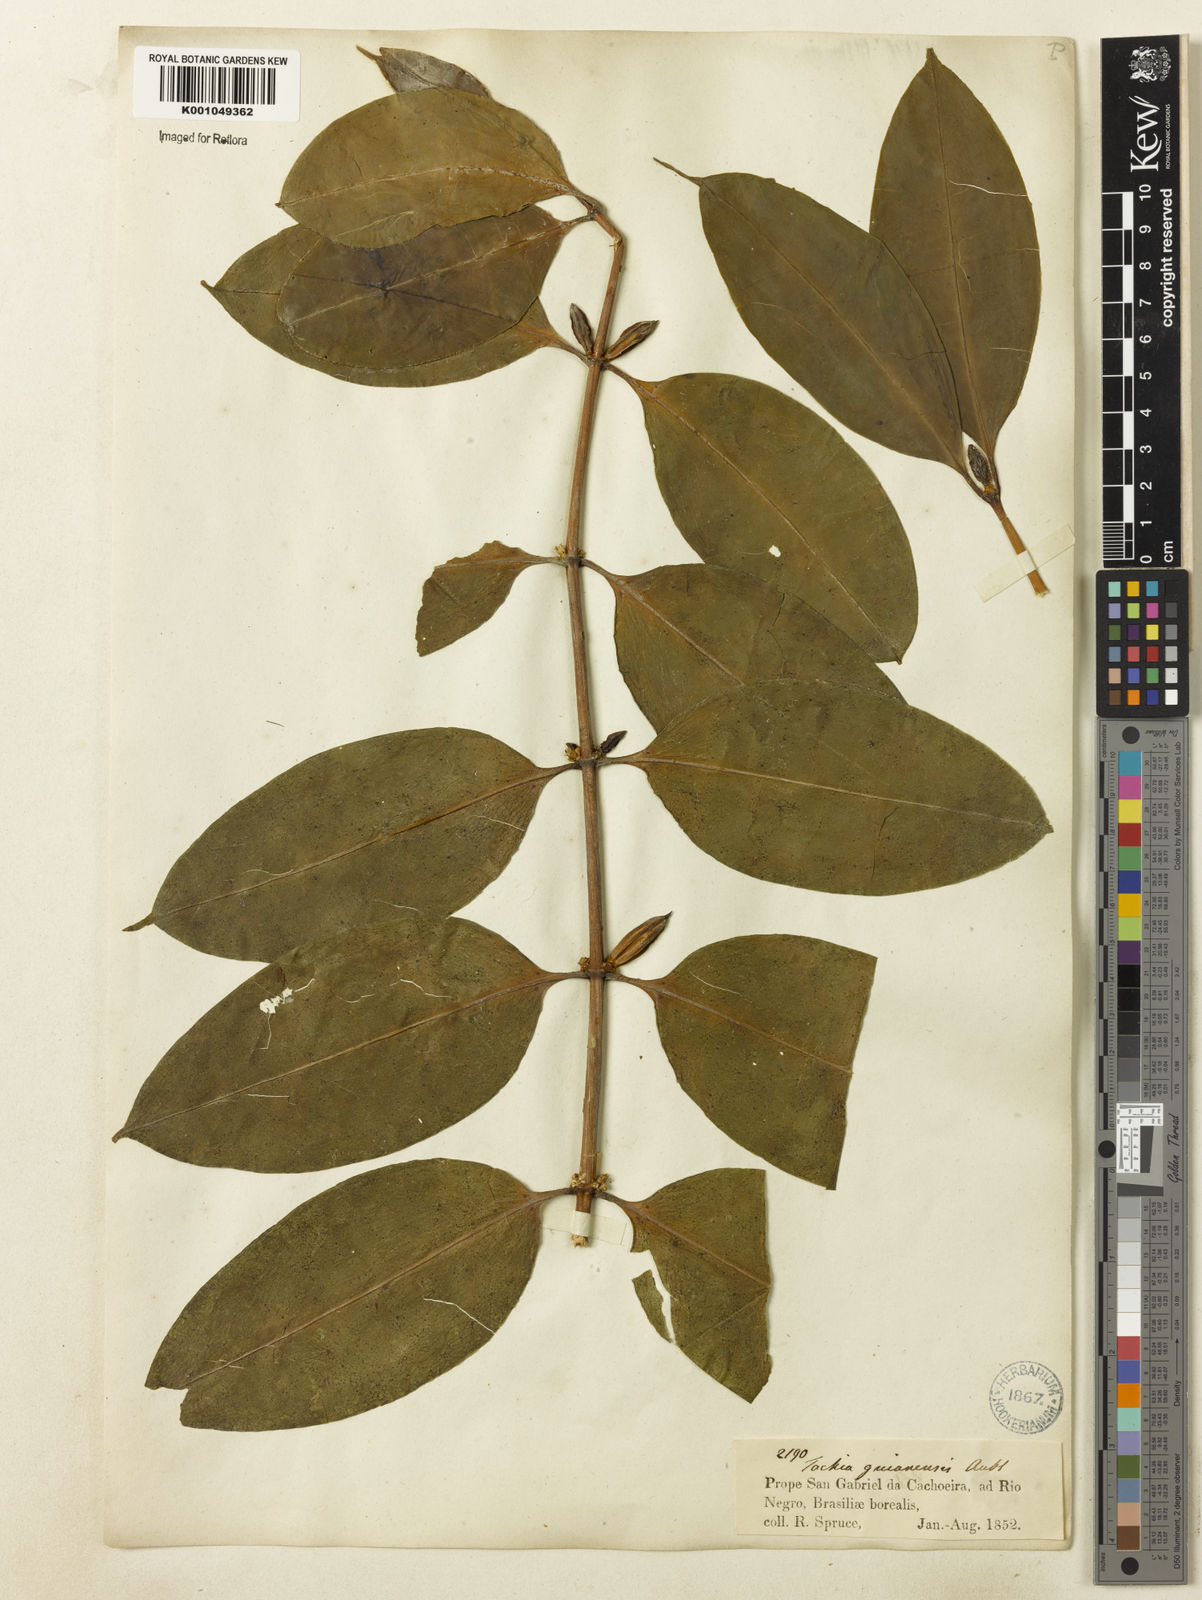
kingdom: Plantae
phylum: Tracheophyta
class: Magnoliopsida
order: Gentianales
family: Gentianaceae
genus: Tachia
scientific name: Tachia guianensis
